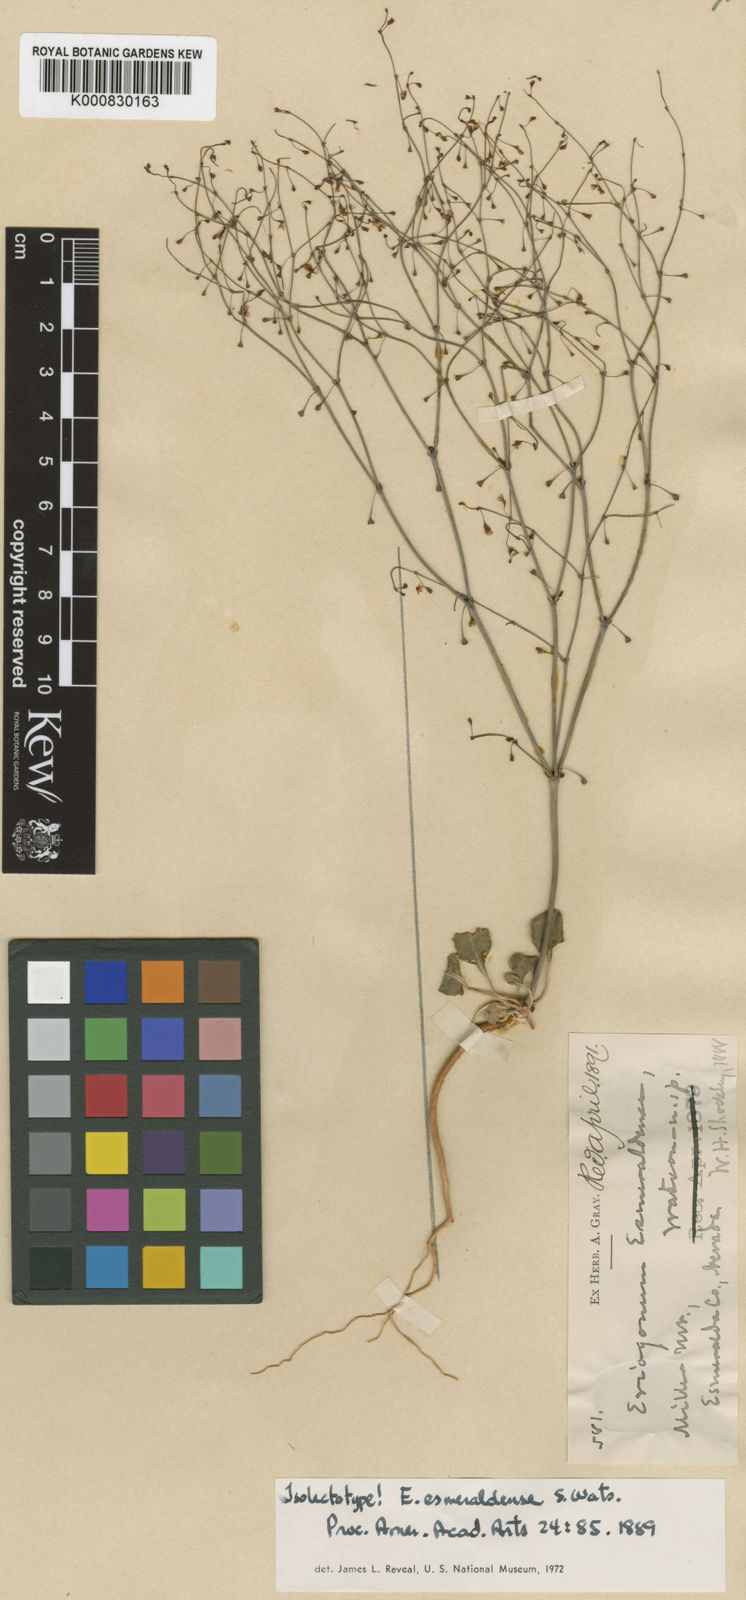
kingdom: Plantae
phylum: Tracheophyta
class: Magnoliopsida
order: Caryophyllales
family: Polygonaceae
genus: Eriogonum
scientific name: Eriogonum esmeraldense
